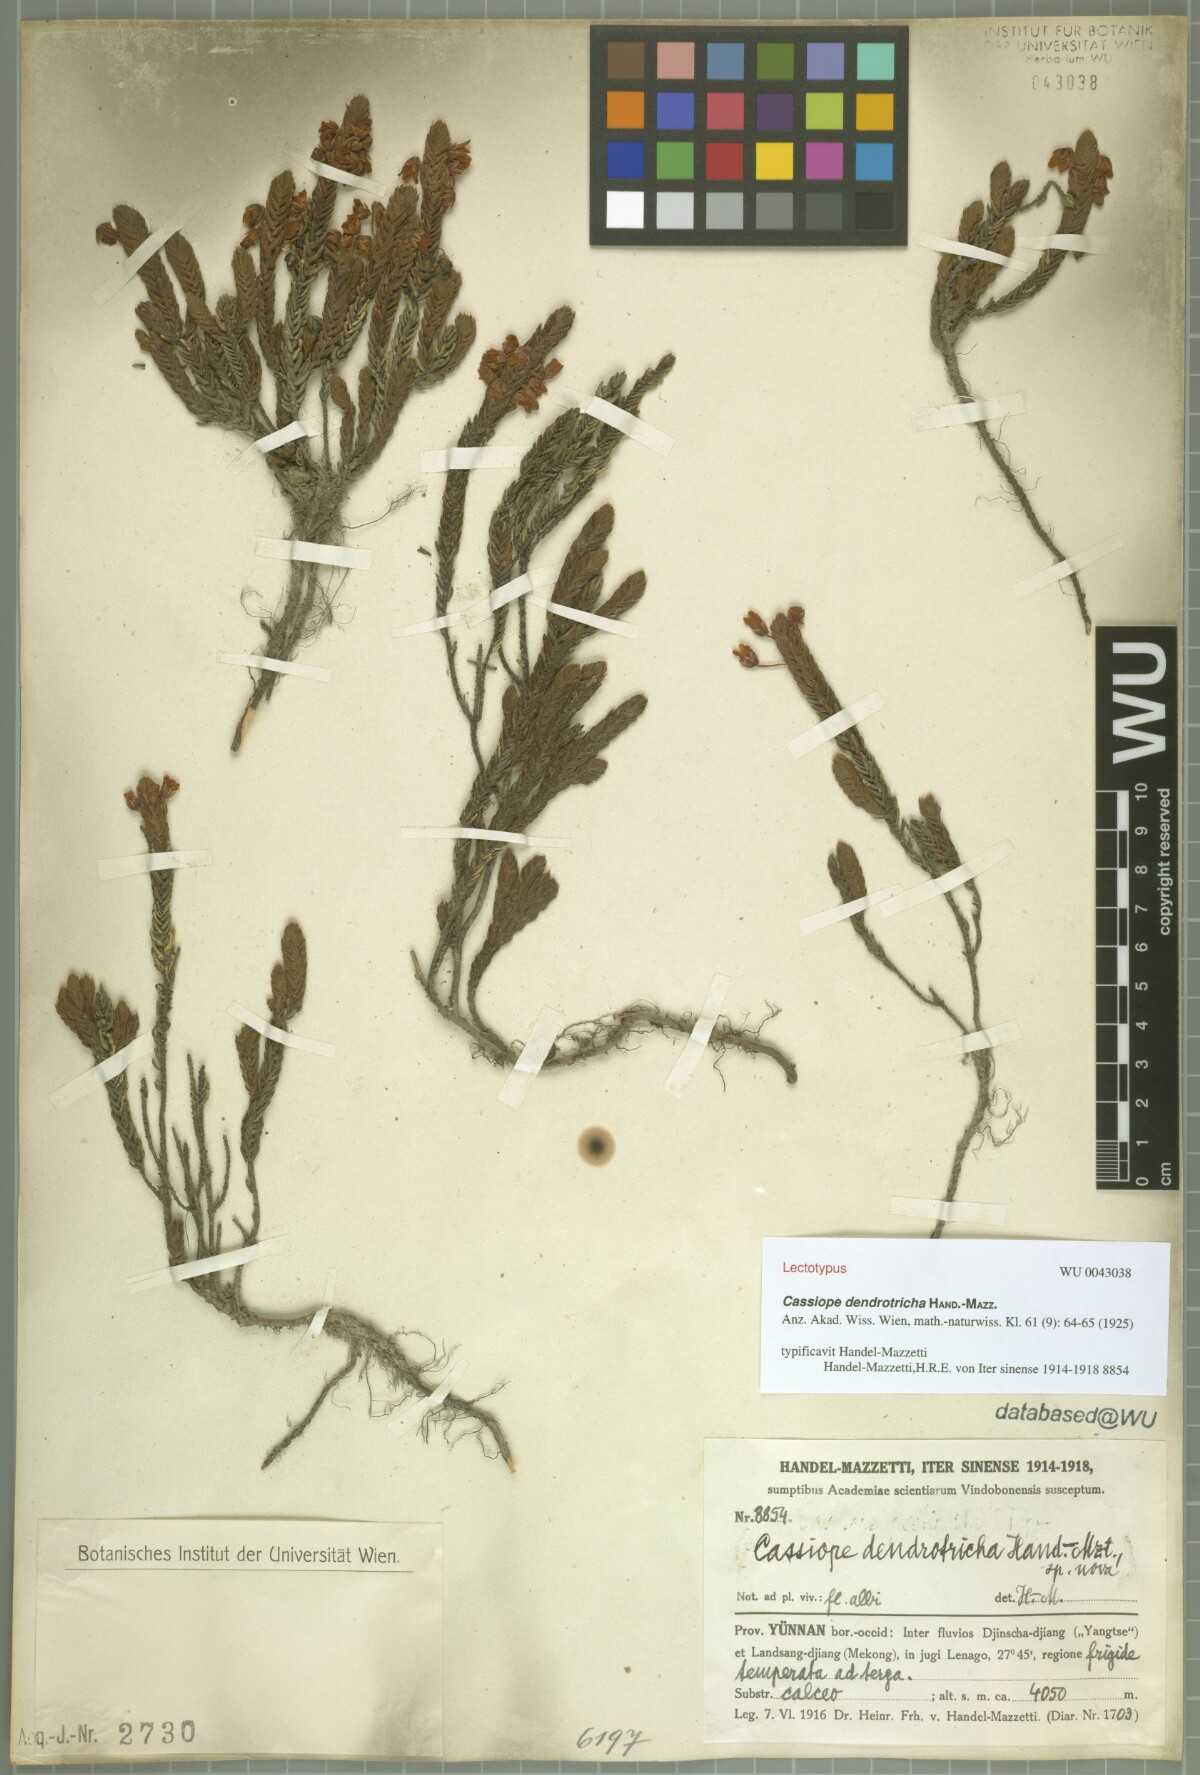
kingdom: Plantae
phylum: Tracheophyta
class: Magnoliopsida
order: Ericales
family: Ericaceae
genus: Cassiope
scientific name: Cassiope pectinata
